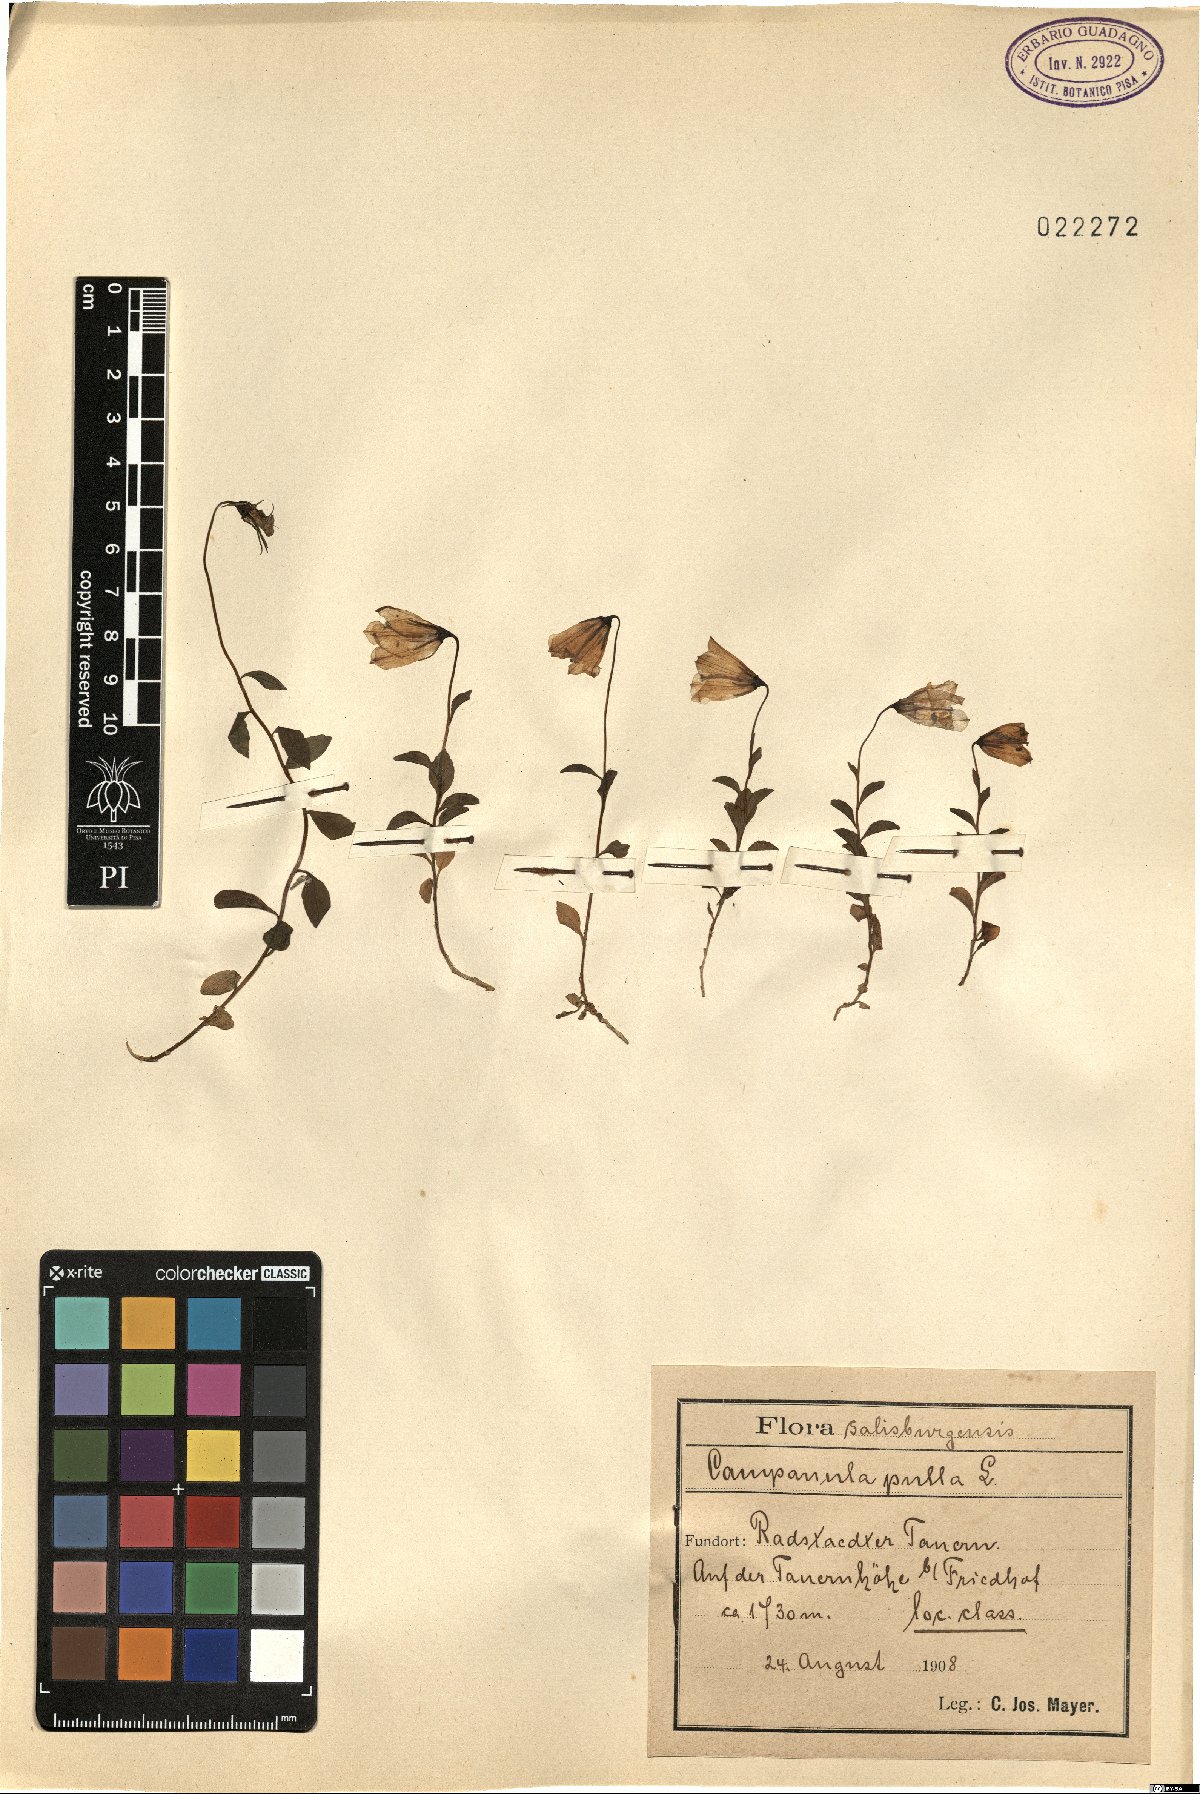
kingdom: Plantae
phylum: Tracheophyta
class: Magnoliopsida
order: Asterales
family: Campanulaceae
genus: Campanula
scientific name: Campanula pulla
